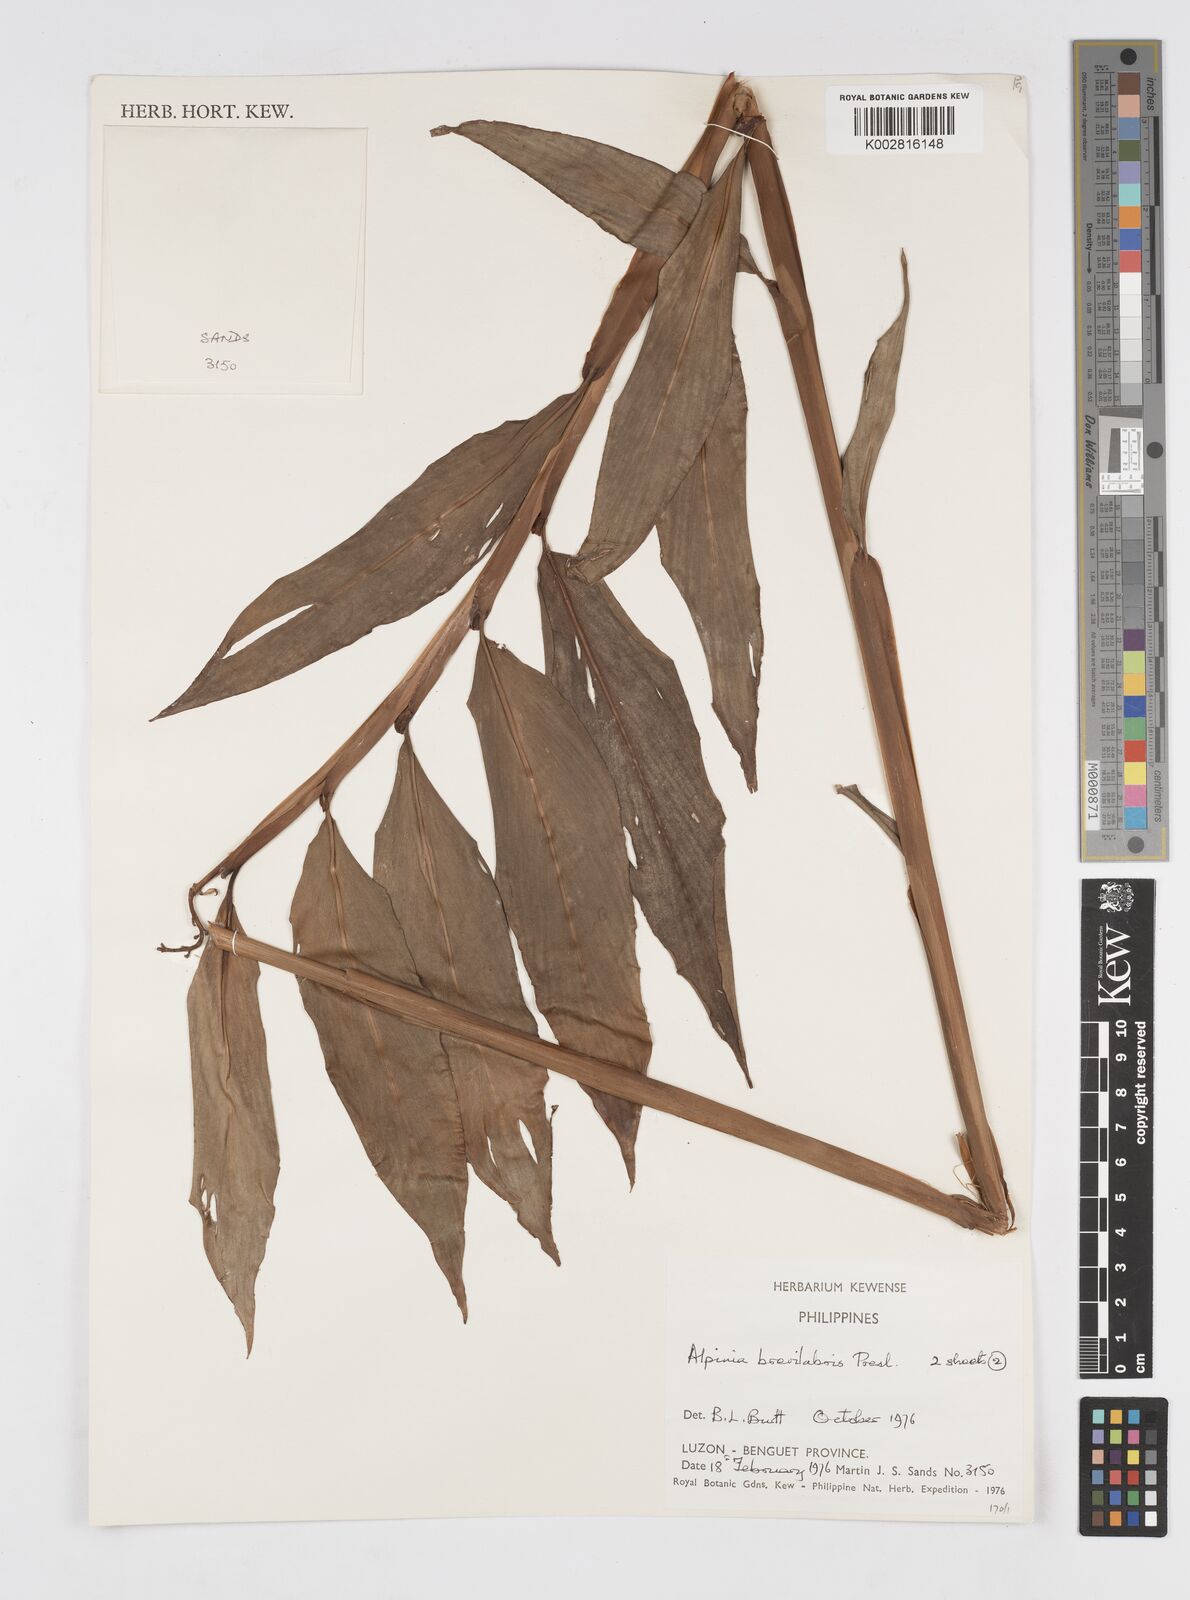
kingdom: Plantae
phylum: Tracheophyta
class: Liliopsida
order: Zingiberales
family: Zingiberaceae
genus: Alpinia
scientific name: Alpinia brevilabris
